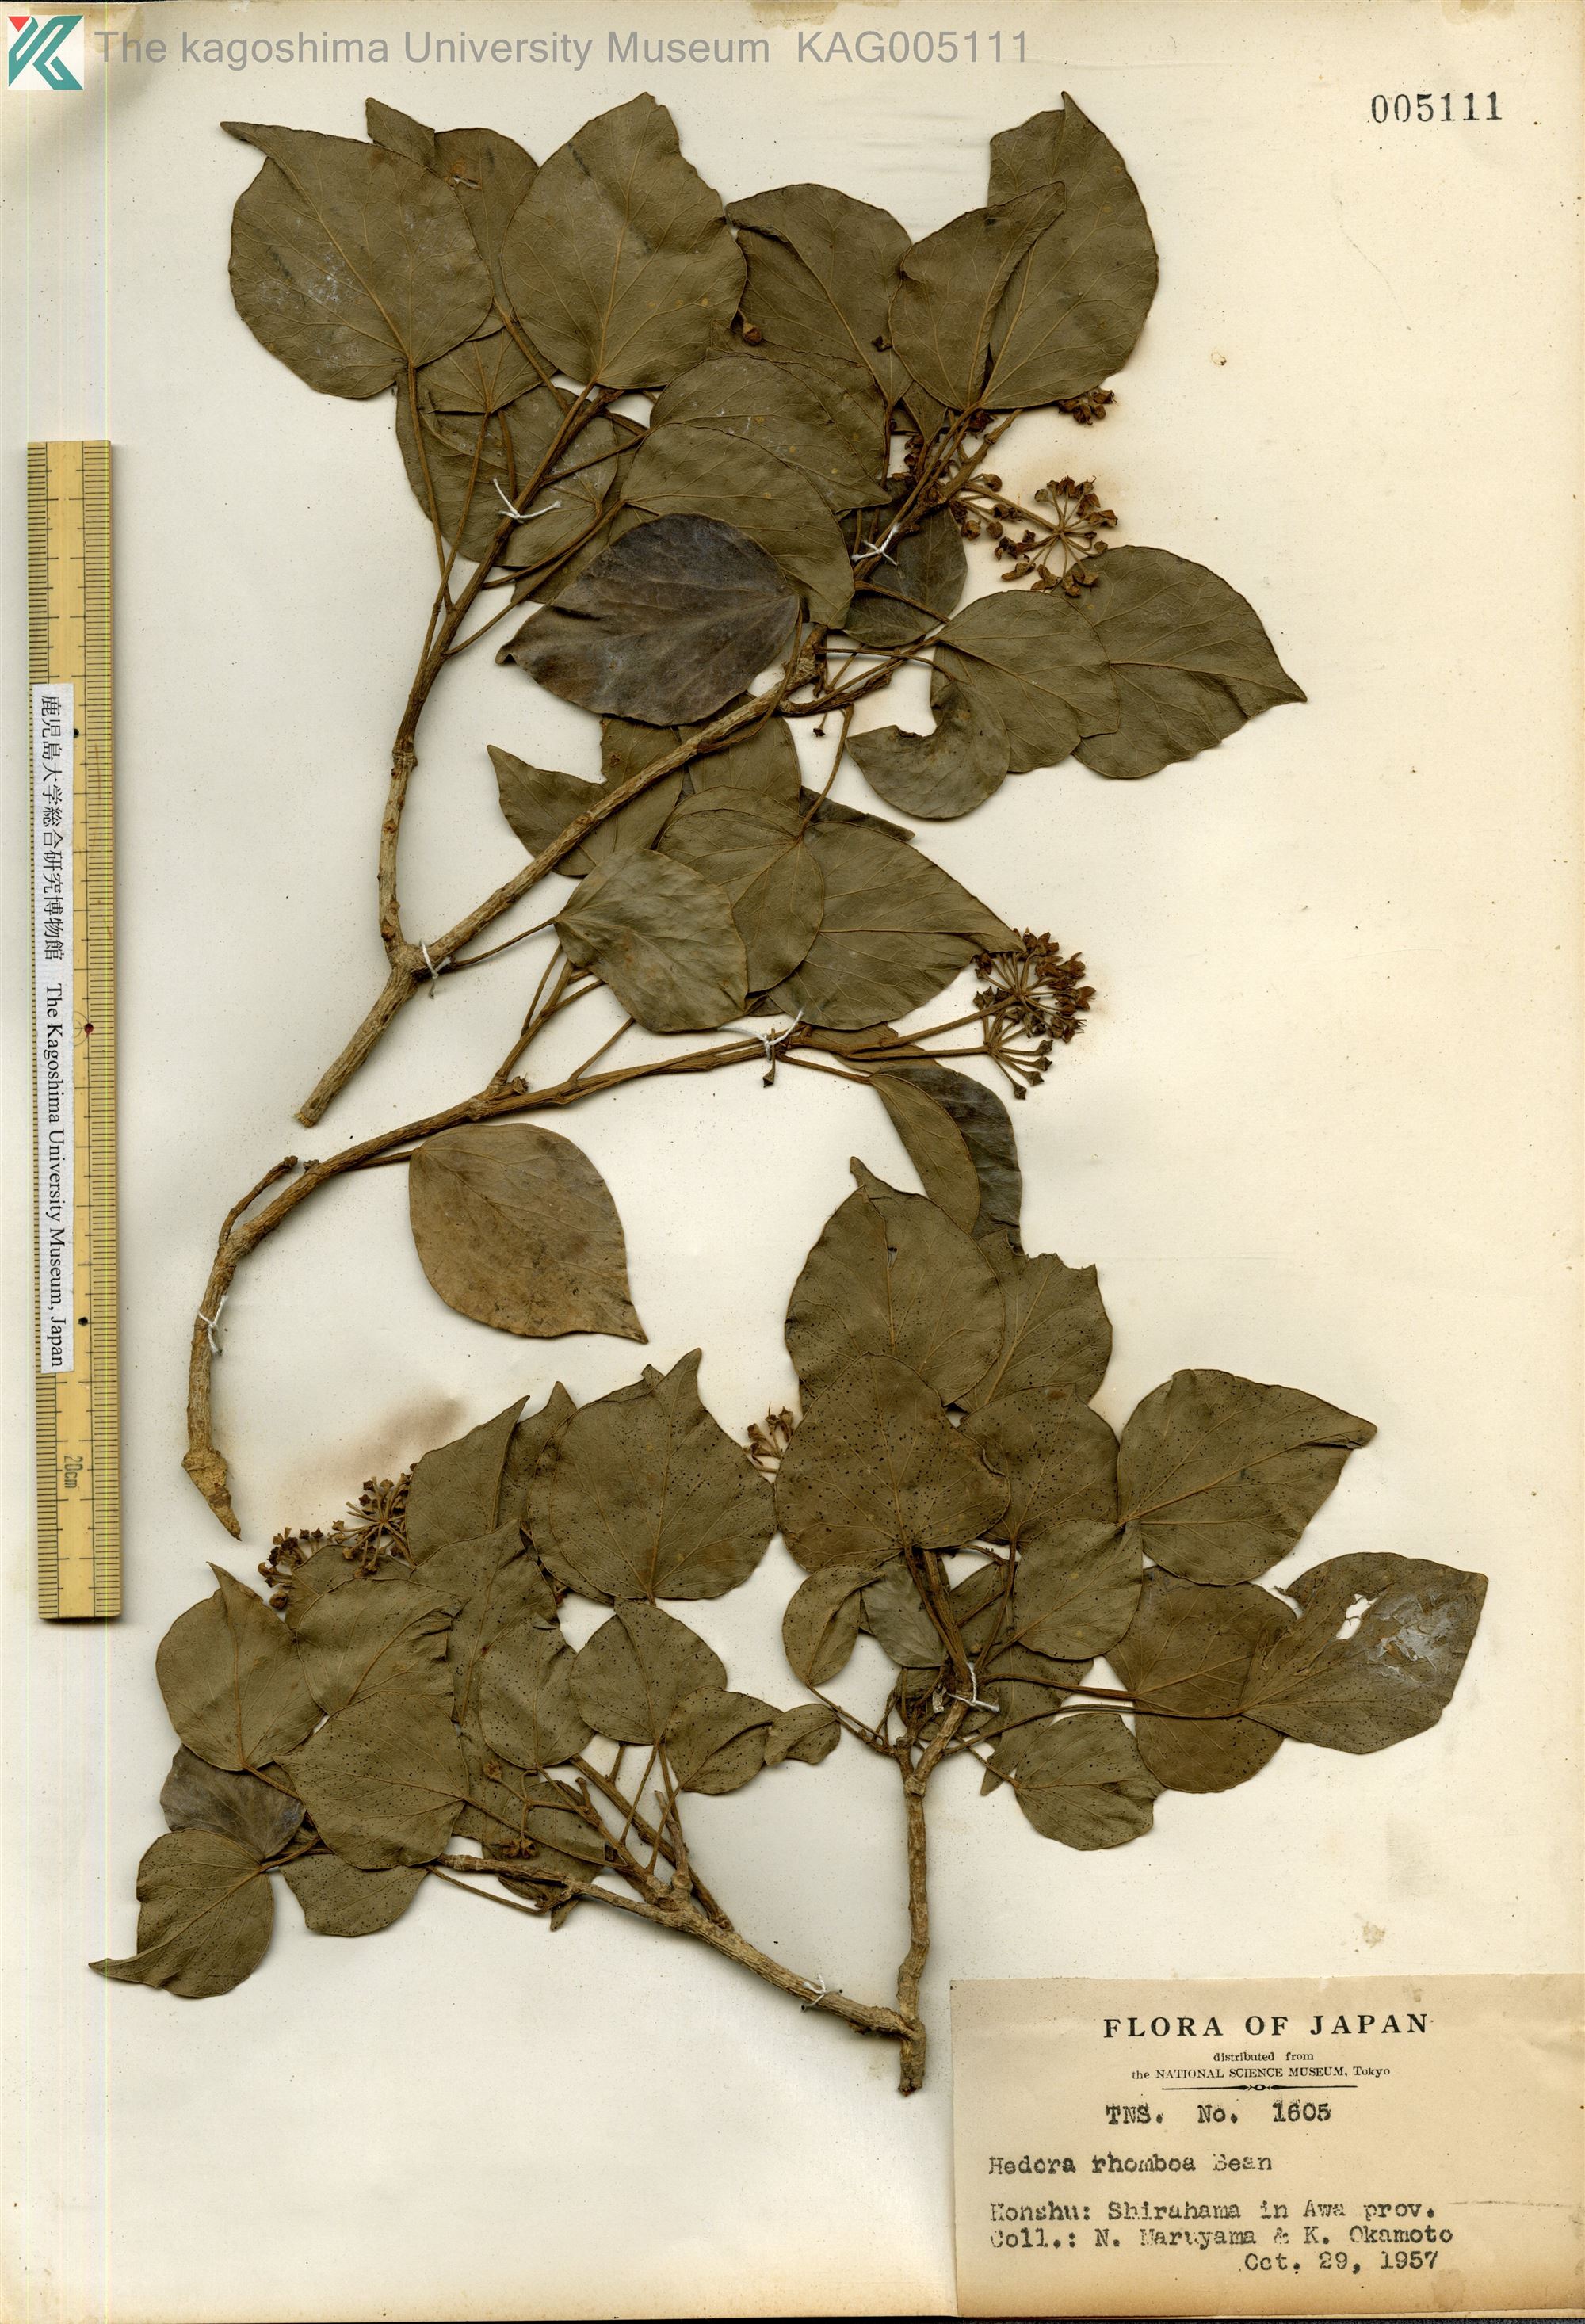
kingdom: Plantae
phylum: Tracheophyta
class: Magnoliopsida
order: Apiales
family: Araliaceae
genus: Hedera
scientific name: Hedera rhombea
